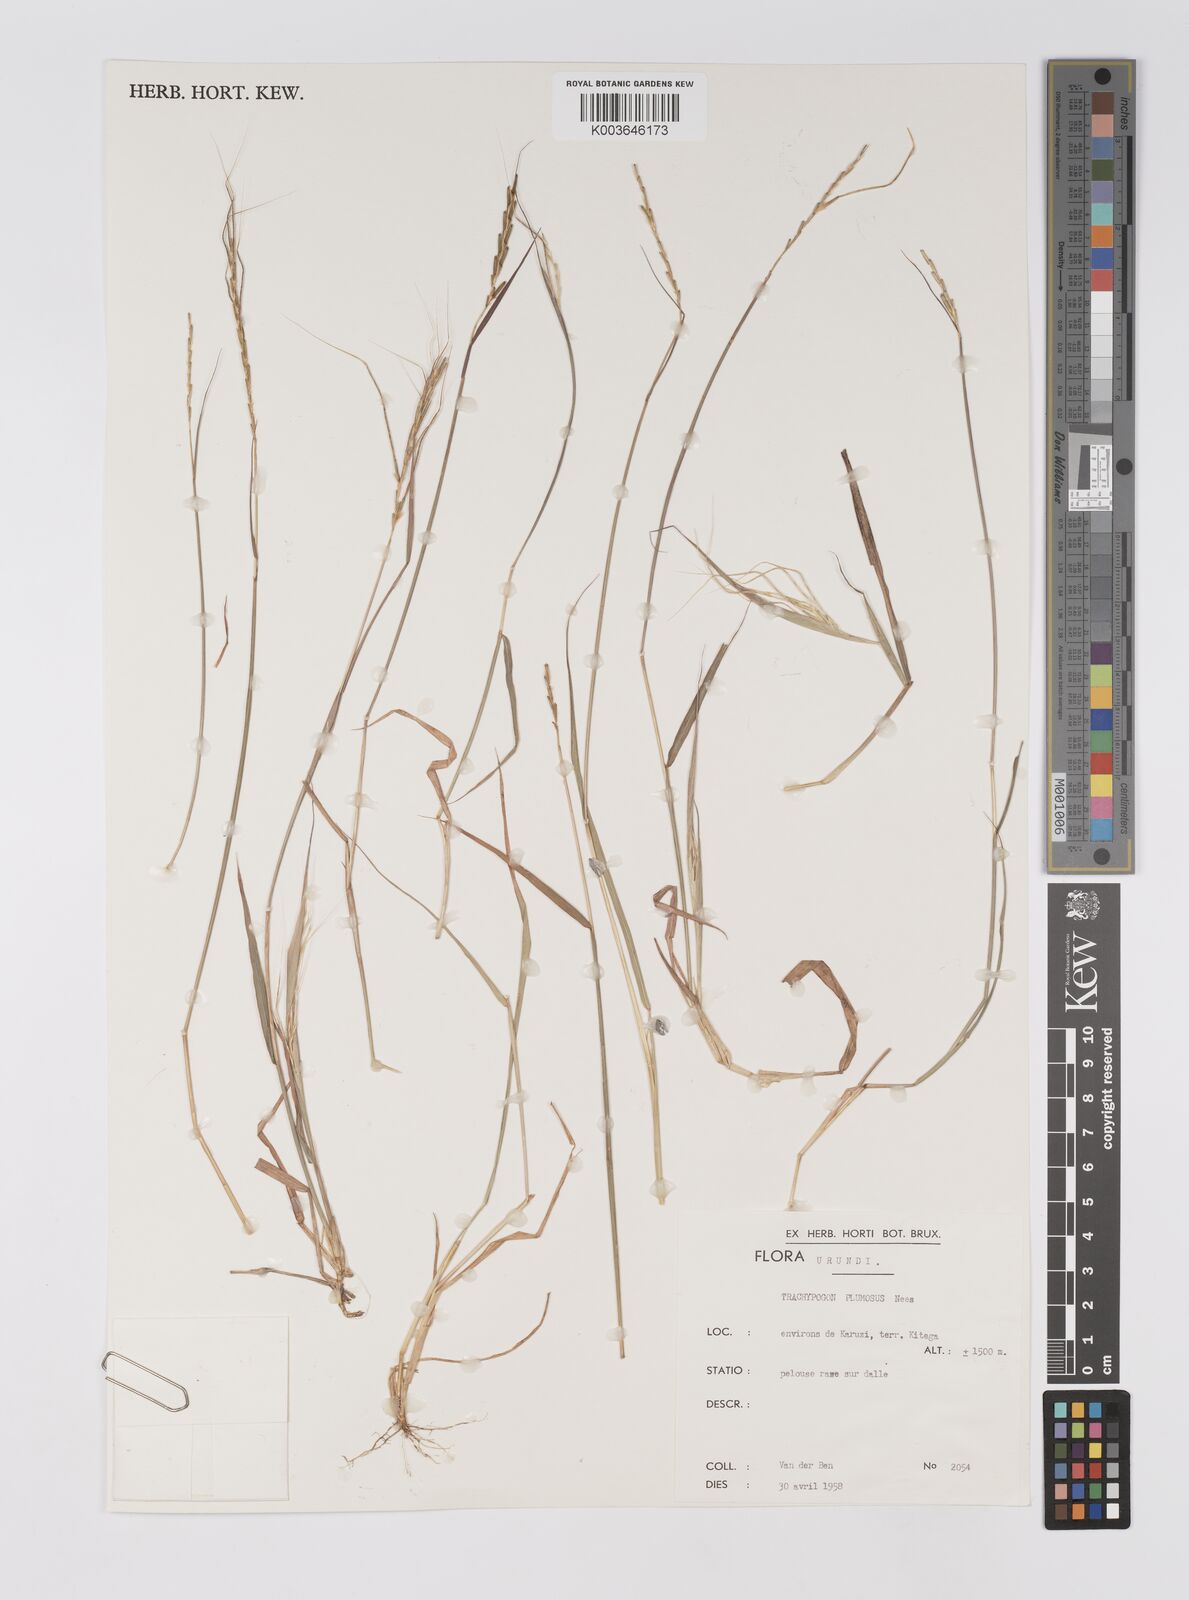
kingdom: Plantae
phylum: Tracheophyta
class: Liliopsida
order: Poales
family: Poaceae
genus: Trachypogon
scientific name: Trachypogon chevalieri
